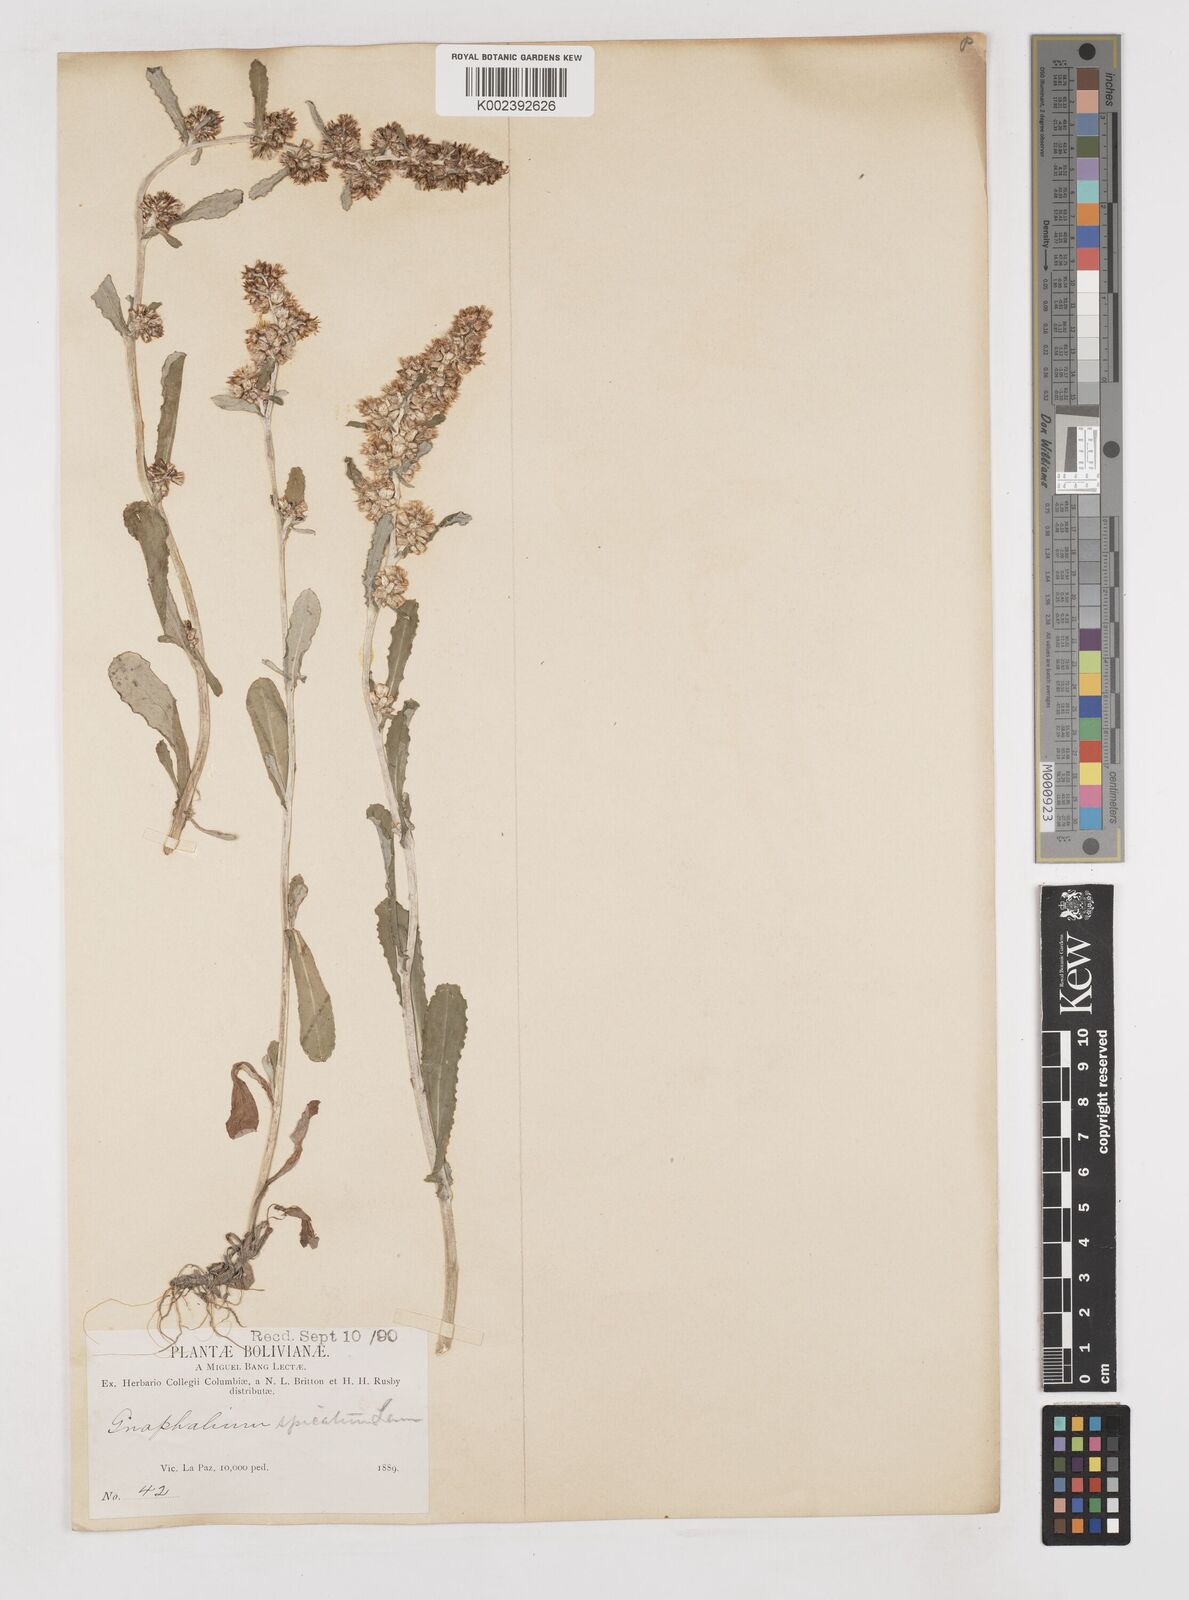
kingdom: Plantae
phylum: Tracheophyta
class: Magnoliopsida
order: Asterales
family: Asteraceae
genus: Gamochaeta
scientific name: Gamochaeta americana
